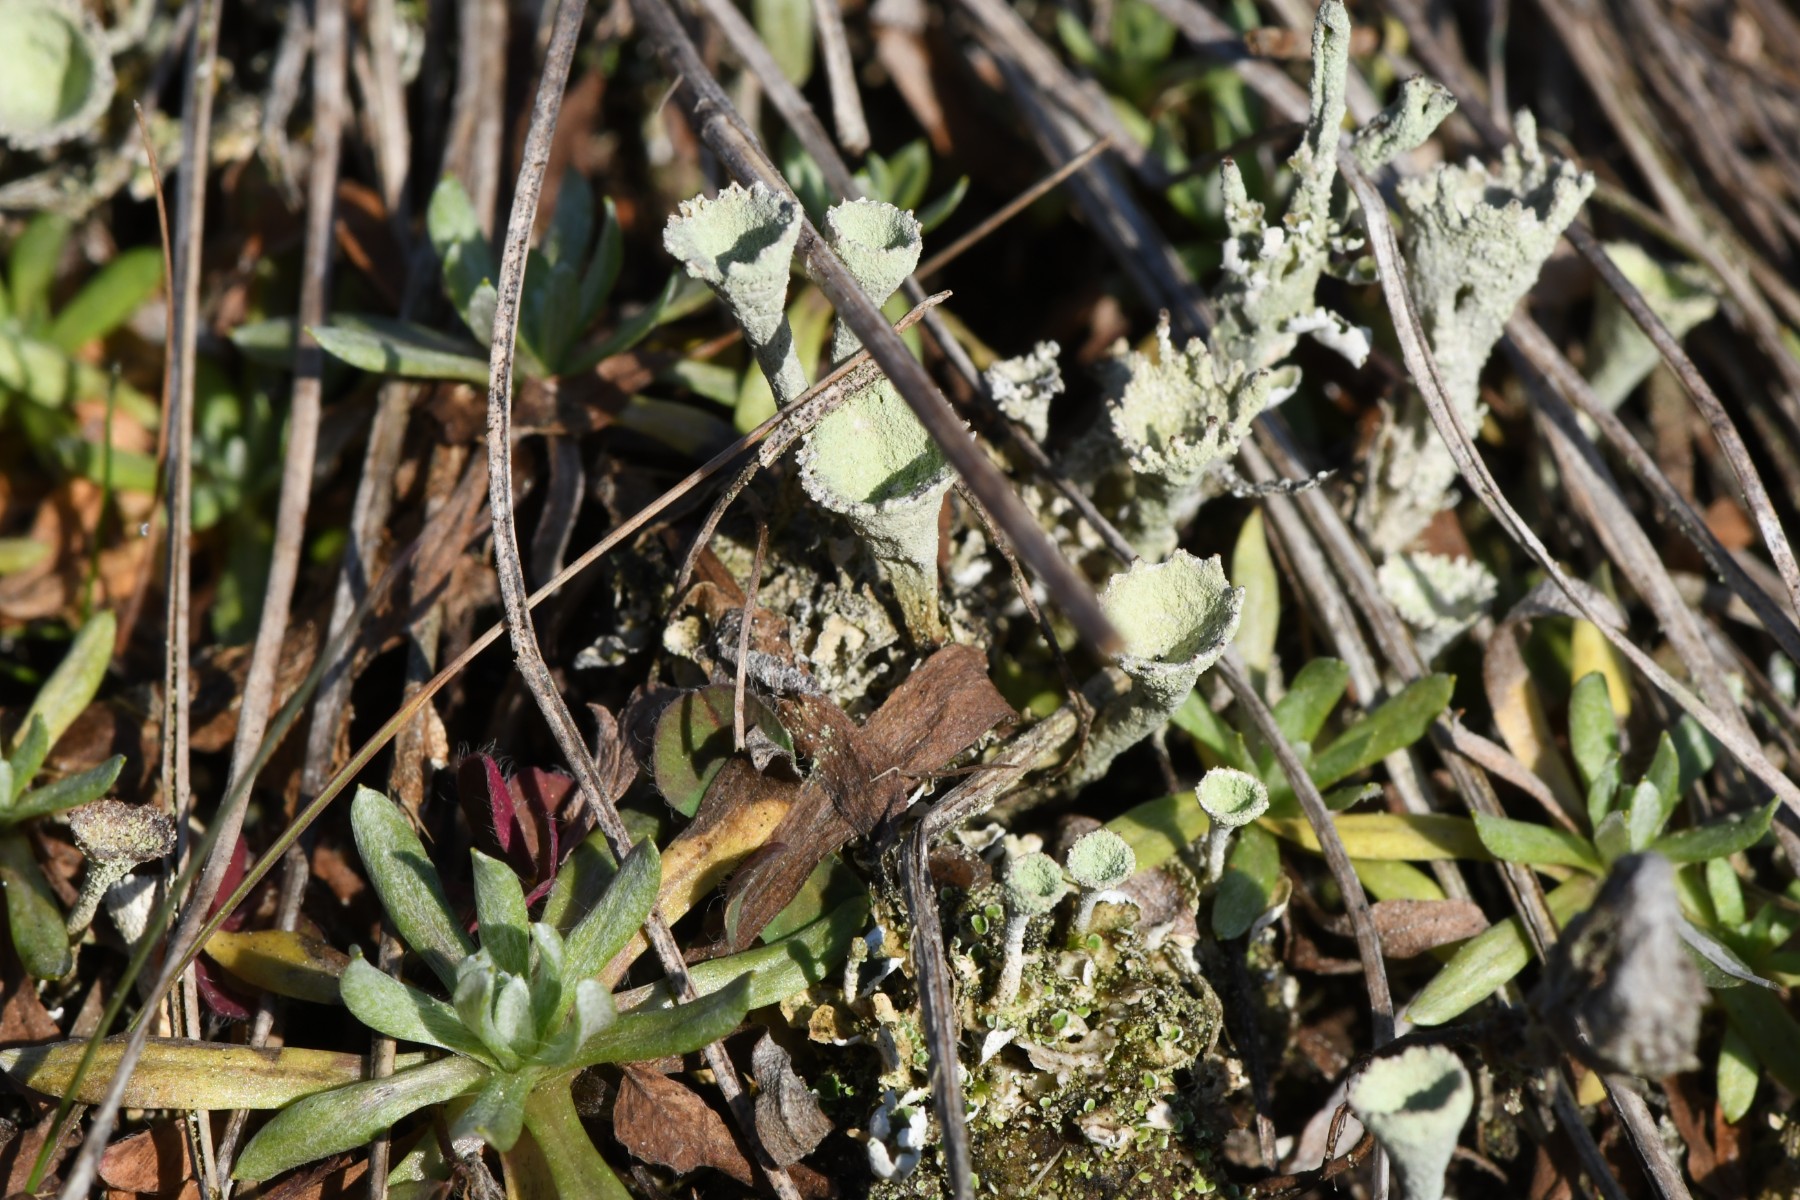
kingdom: Fungi
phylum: Ascomycota
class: Lecanoromycetes
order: Lecanorales
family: Cladoniaceae
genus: Cladonia
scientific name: Cladonia fimbriata
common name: bleggrøn bægerlav
